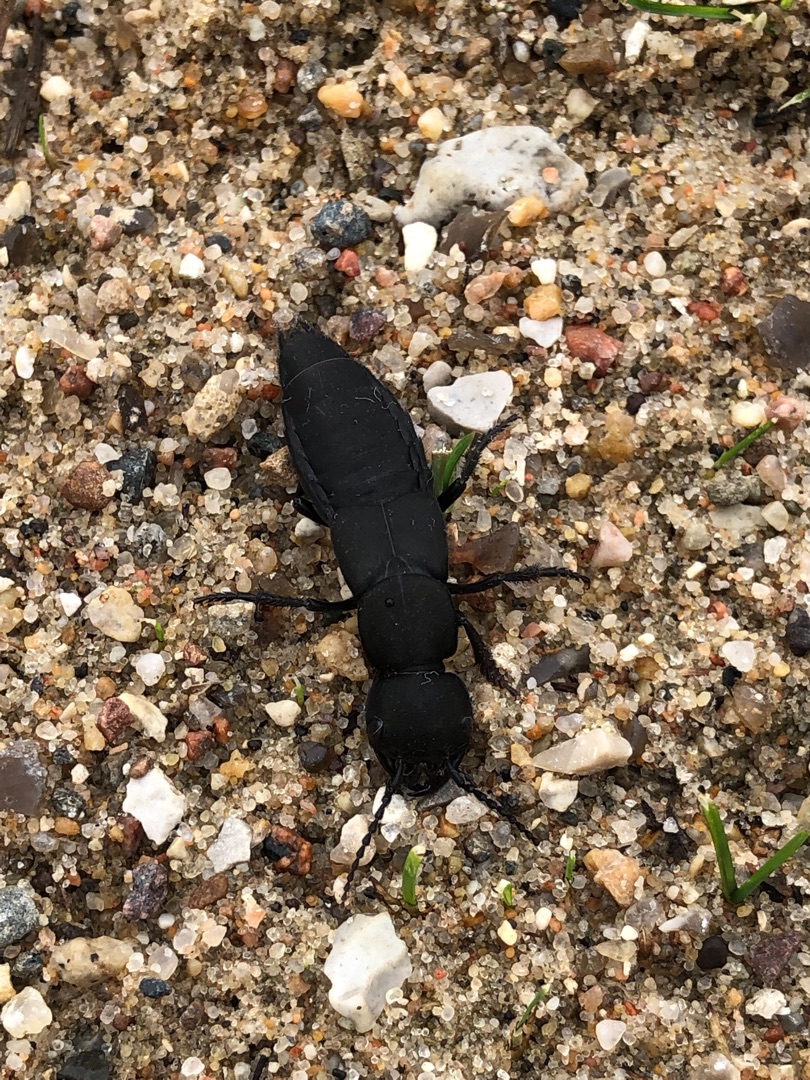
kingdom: Animalia
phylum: Arthropoda
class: Insecta
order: Coleoptera
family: Staphylinidae
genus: Ocypus
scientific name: Ocypus olens
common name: Stor rovbille
